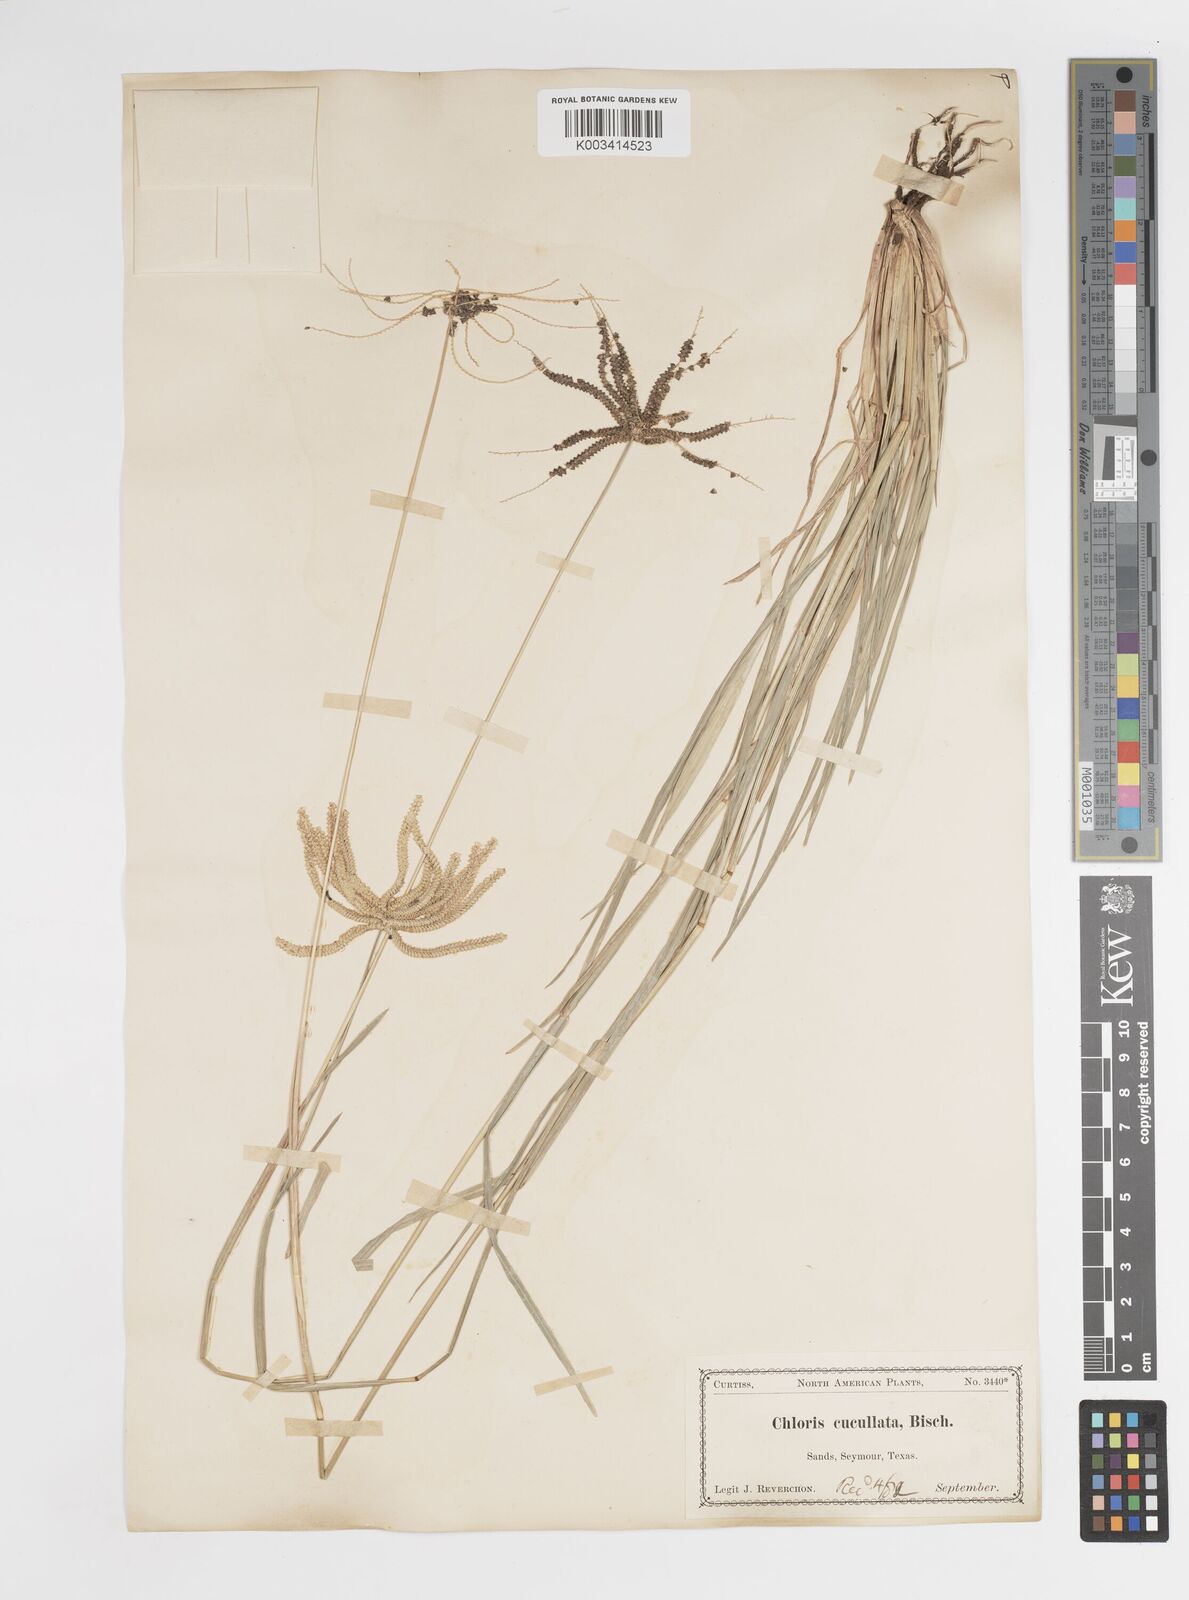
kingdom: Plantae
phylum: Tracheophyta
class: Liliopsida
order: Poales
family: Poaceae
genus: Chloris
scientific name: Chloris cucullata
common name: Hooded windmill grass
